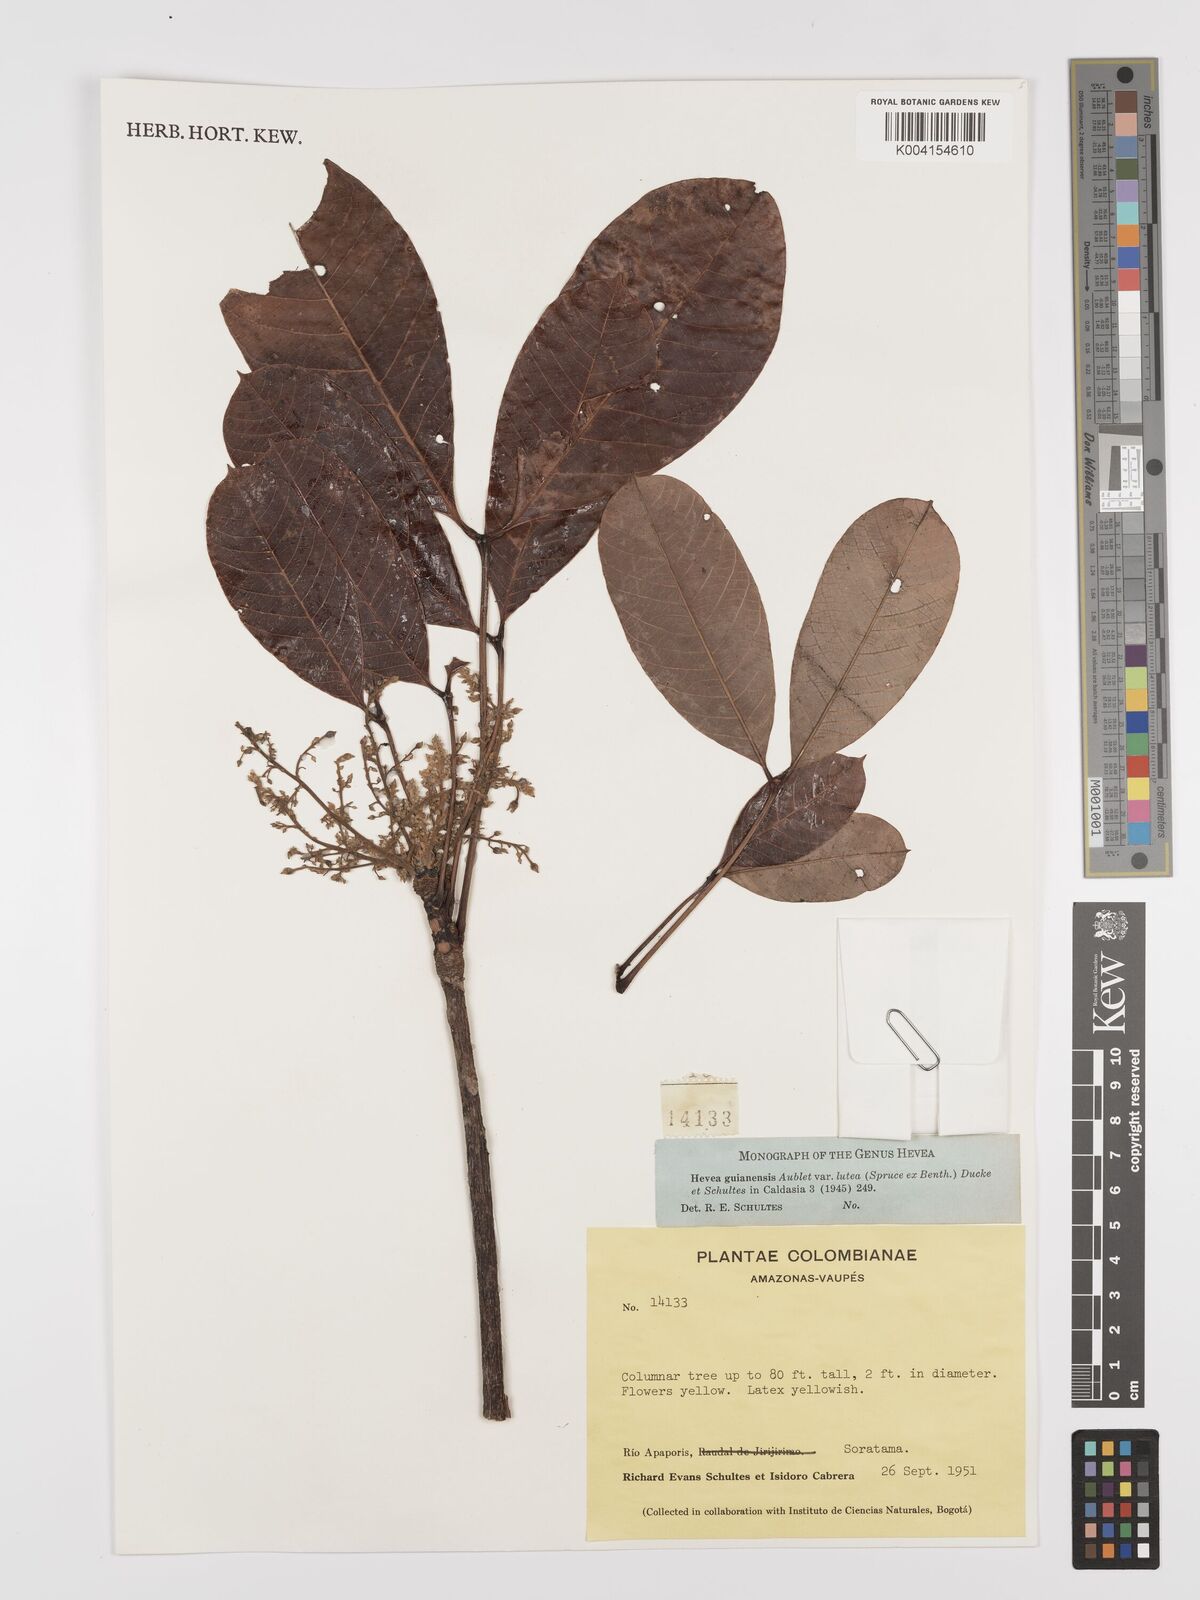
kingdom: Plantae
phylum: Tracheophyta
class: Magnoliopsida
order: Malpighiales
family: Euphorbiaceae
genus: Hevea
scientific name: Hevea guianensis
